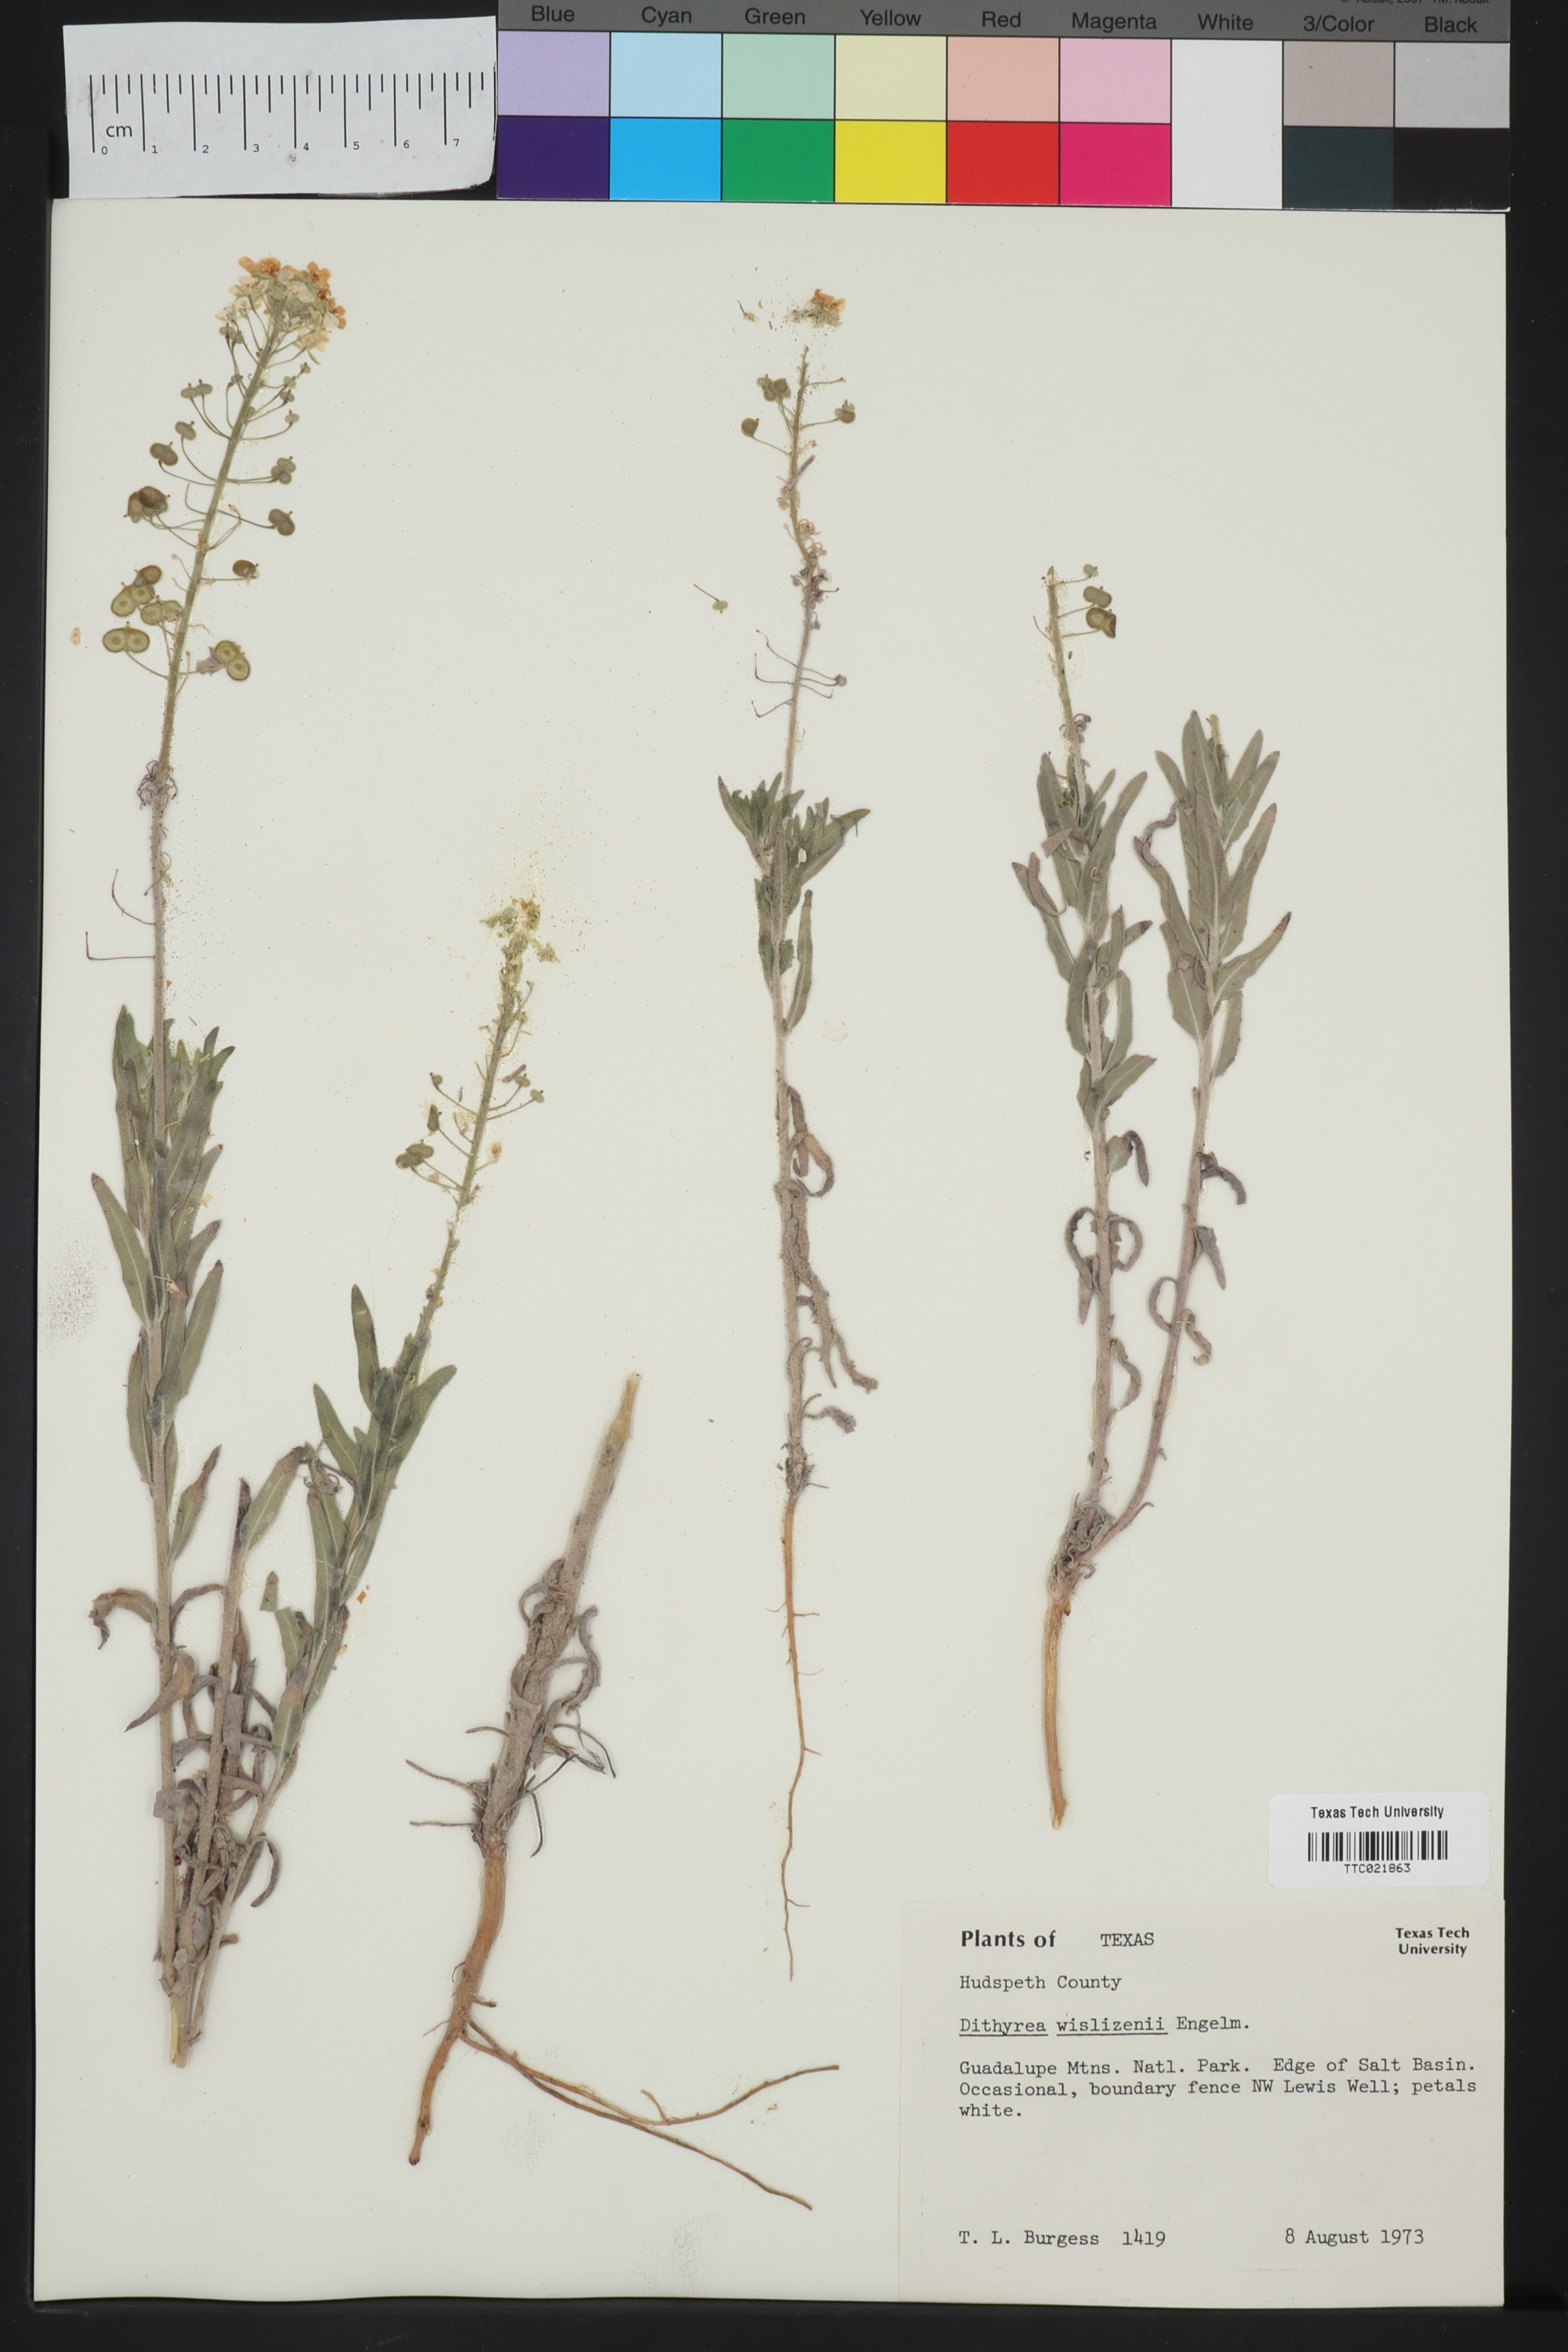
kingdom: Plantae
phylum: Tracheophyta
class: Magnoliopsida
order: Brassicales
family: Brassicaceae
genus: Dimorphocarpa
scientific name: Dimorphocarpa wislizenii
